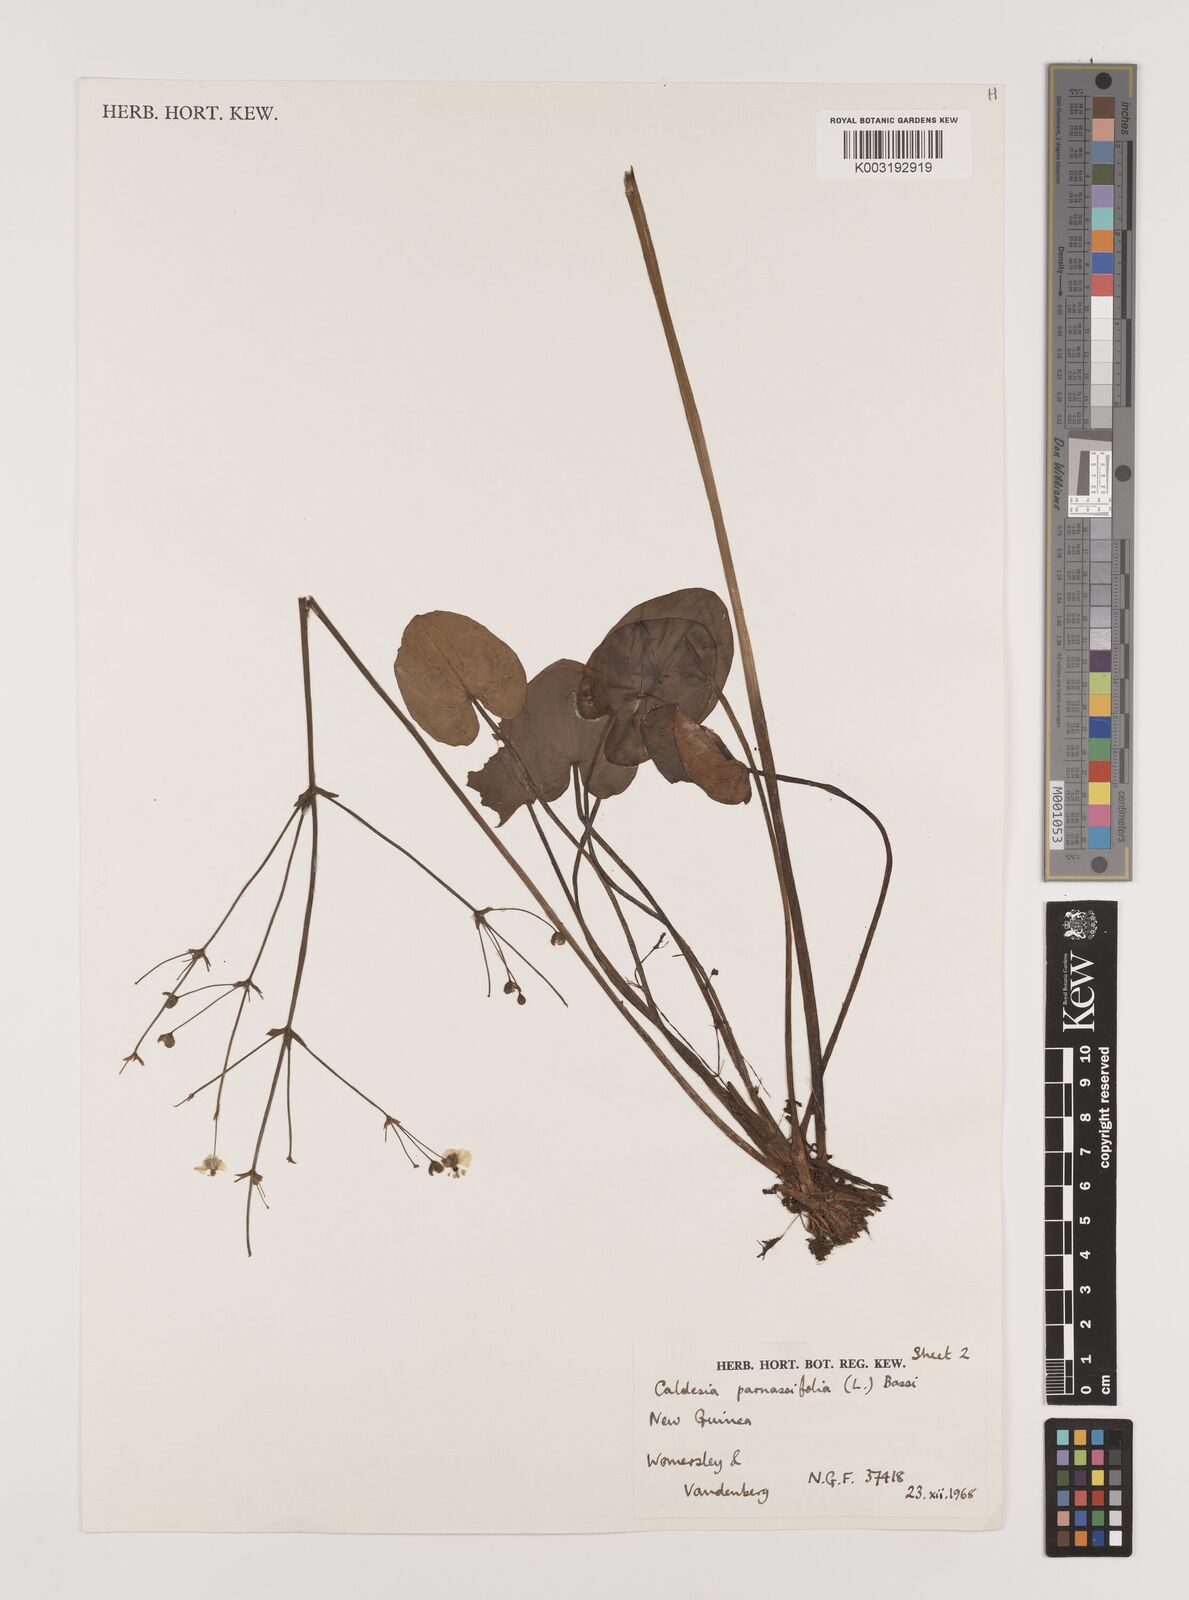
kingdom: Plantae
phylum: Tracheophyta
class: Liliopsida
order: Alismatales
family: Alismataceae
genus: Caldesia
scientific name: Caldesia parnassifolia
